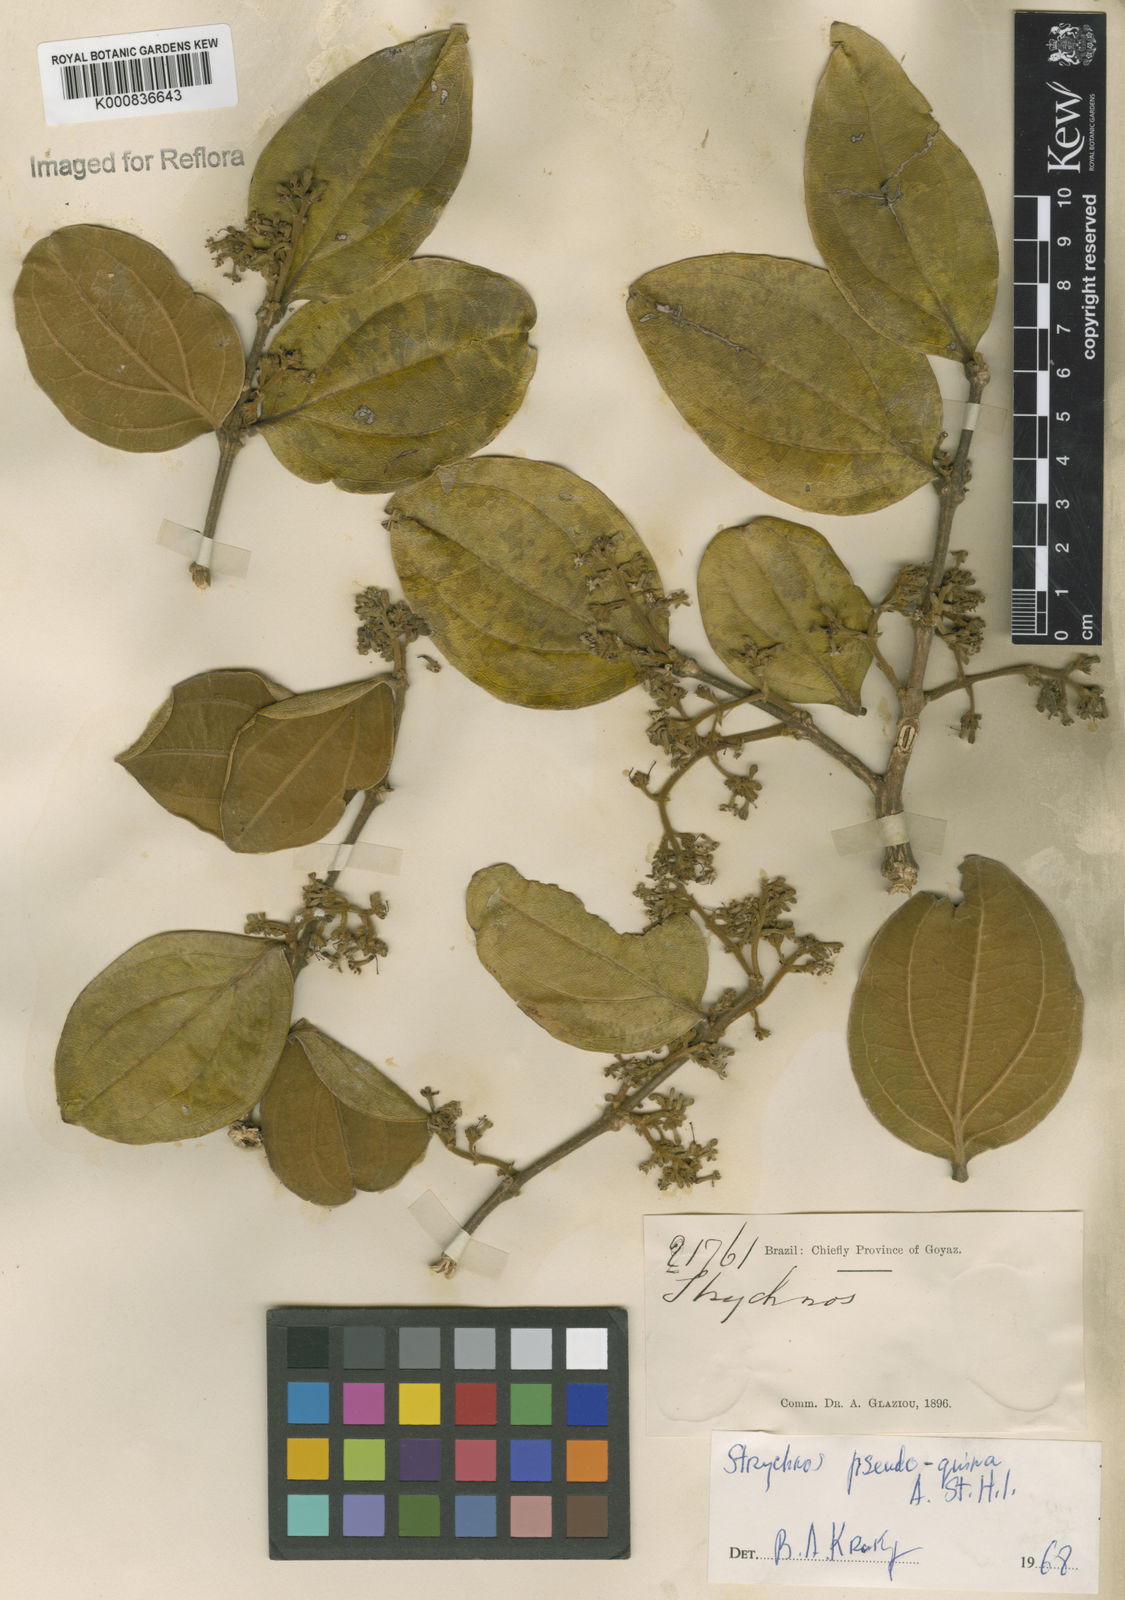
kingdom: Plantae
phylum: Tracheophyta
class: Magnoliopsida
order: Gentianales
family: Loganiaceae
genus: Strychnos
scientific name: Strychnos pseudoquina
